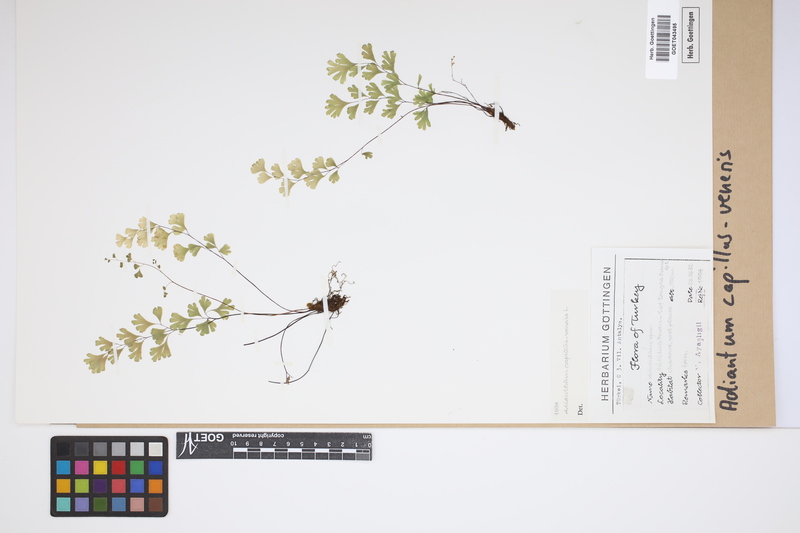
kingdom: Plantae
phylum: Tracheophyta
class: Polypodiopsida
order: Polypodiales
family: Pteridaceae
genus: Adiantum
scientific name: Adiantum capillus-veneris
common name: Maidenhair fern
